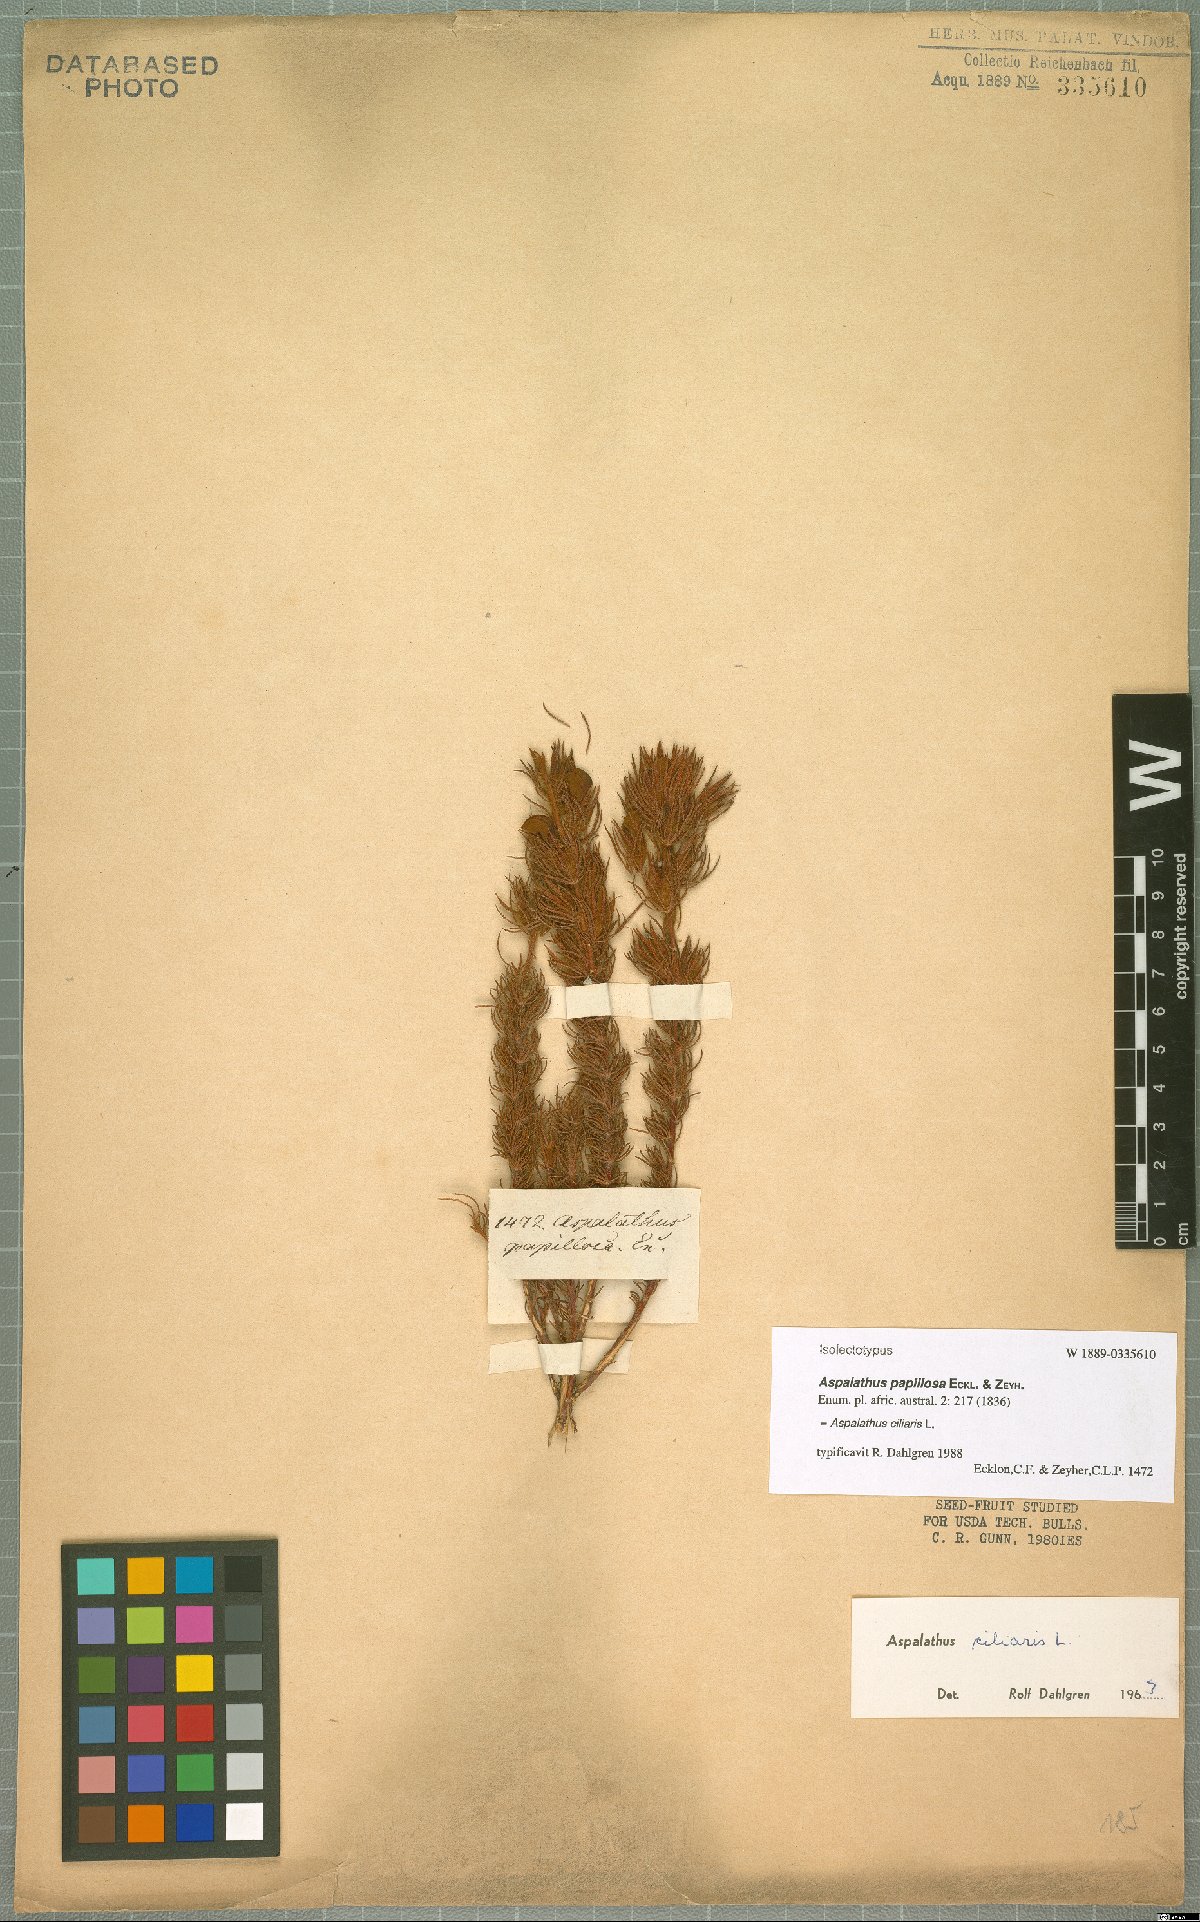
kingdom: Plantae
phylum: Tracheophyta
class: Magnoliopsida
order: Fabales
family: Fabaceae
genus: Aspalathus
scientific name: Aspalathus ciliaris
